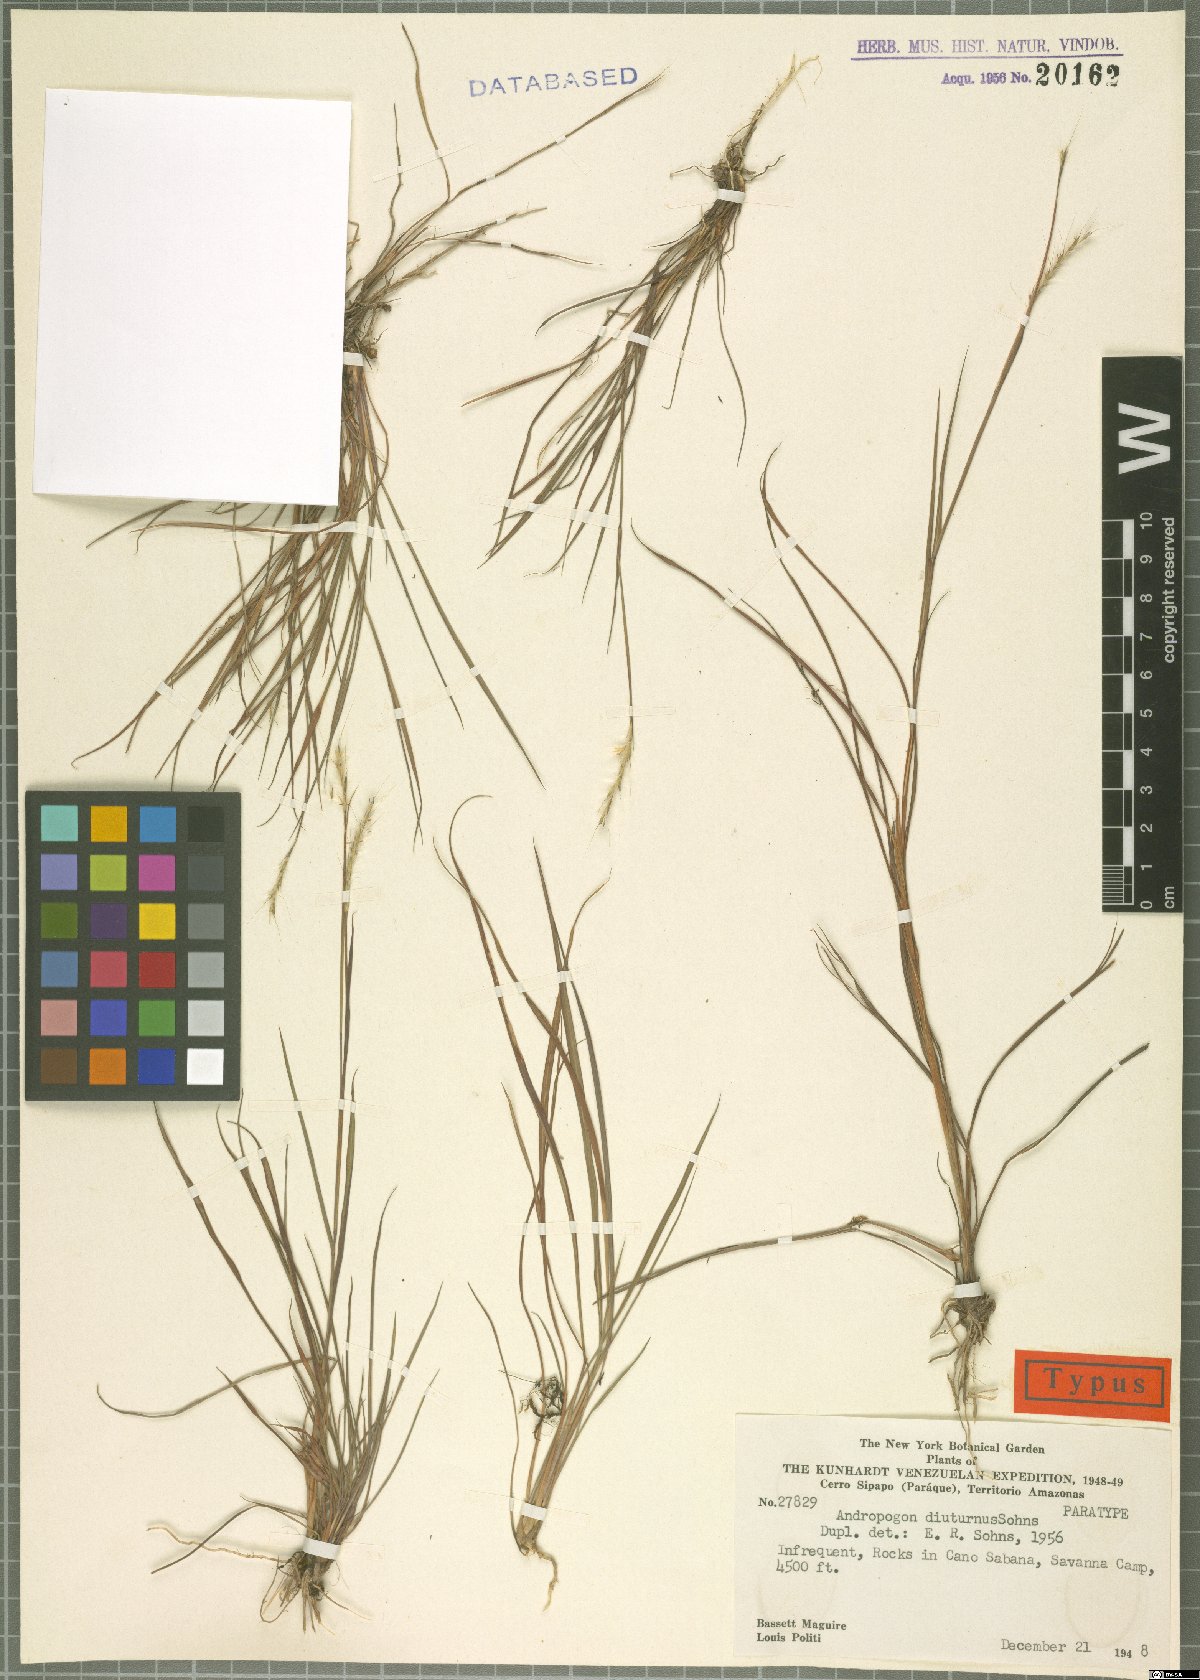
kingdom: Plantae
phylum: Tracheophyta
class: Liliopsida
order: Poales
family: Poaceae
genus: Andropogon
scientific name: Andropogon diuturnus
